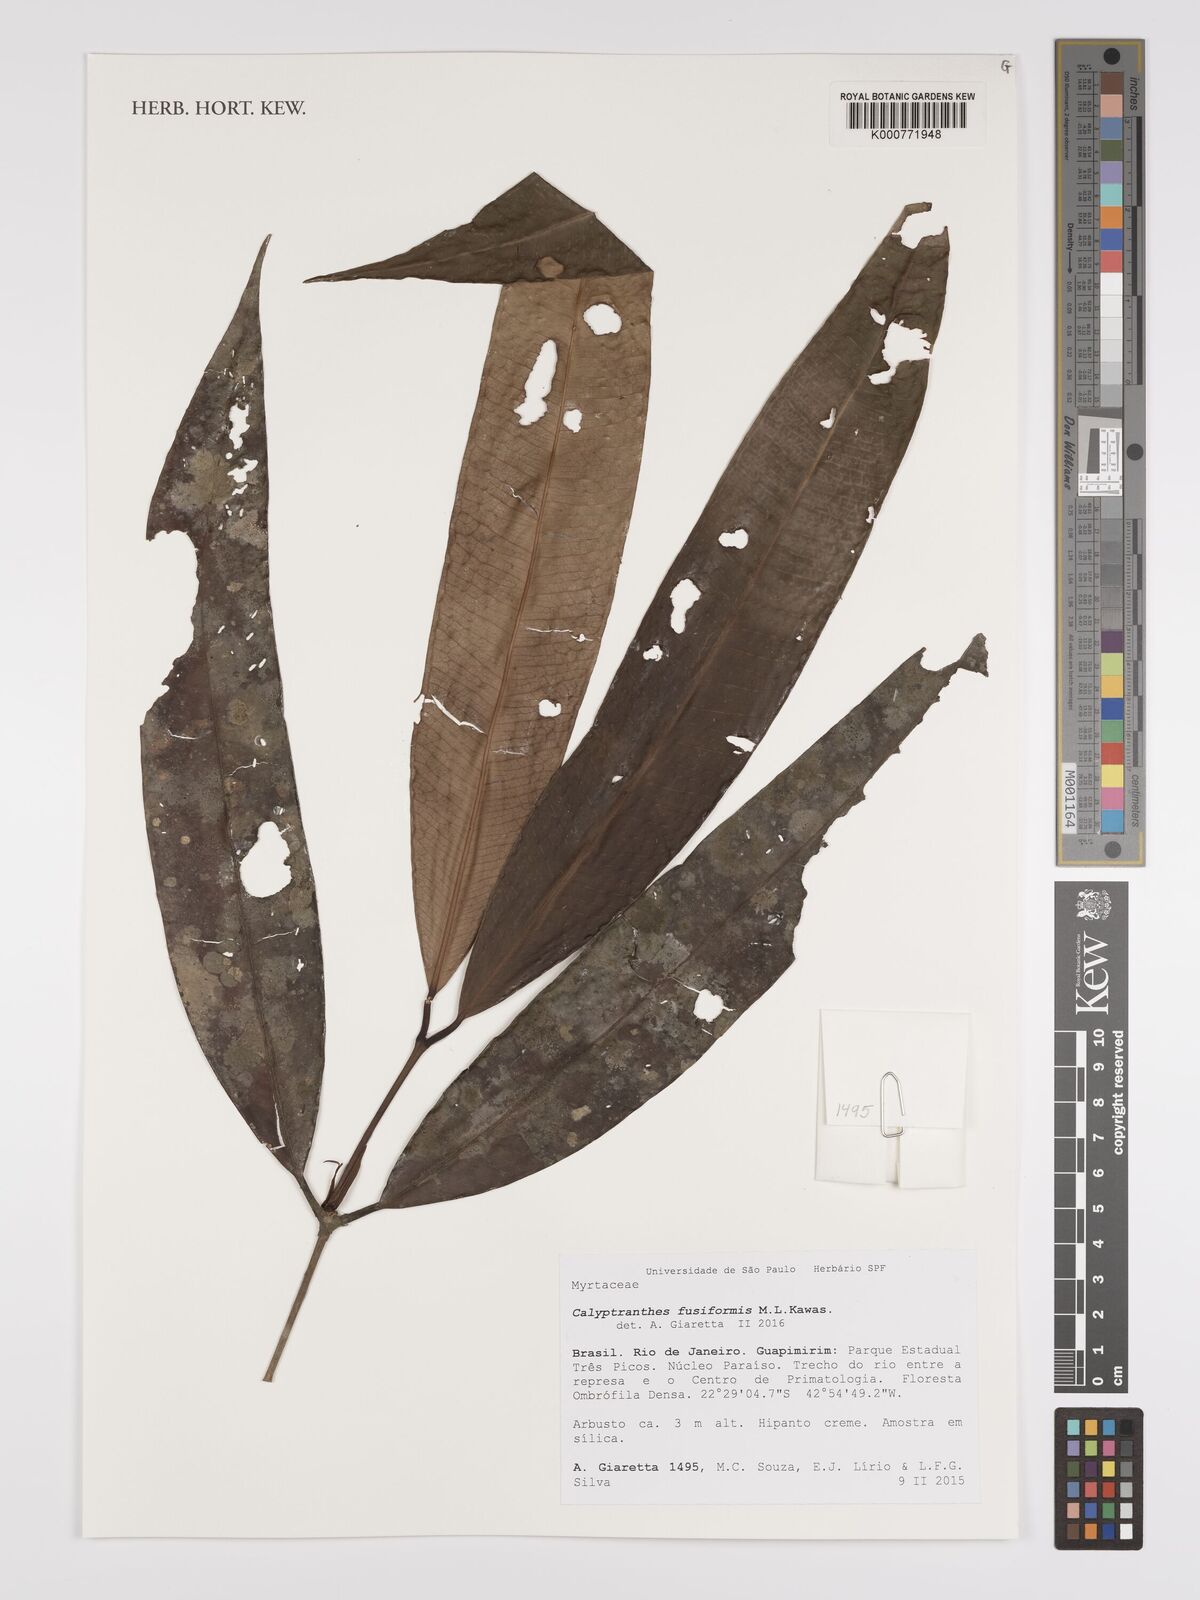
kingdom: Plantae
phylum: Tracheophyta
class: Magnoliopsida
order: Myrtales
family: Myrtaceae
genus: Myrcia
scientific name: Myrcia fusiformis
